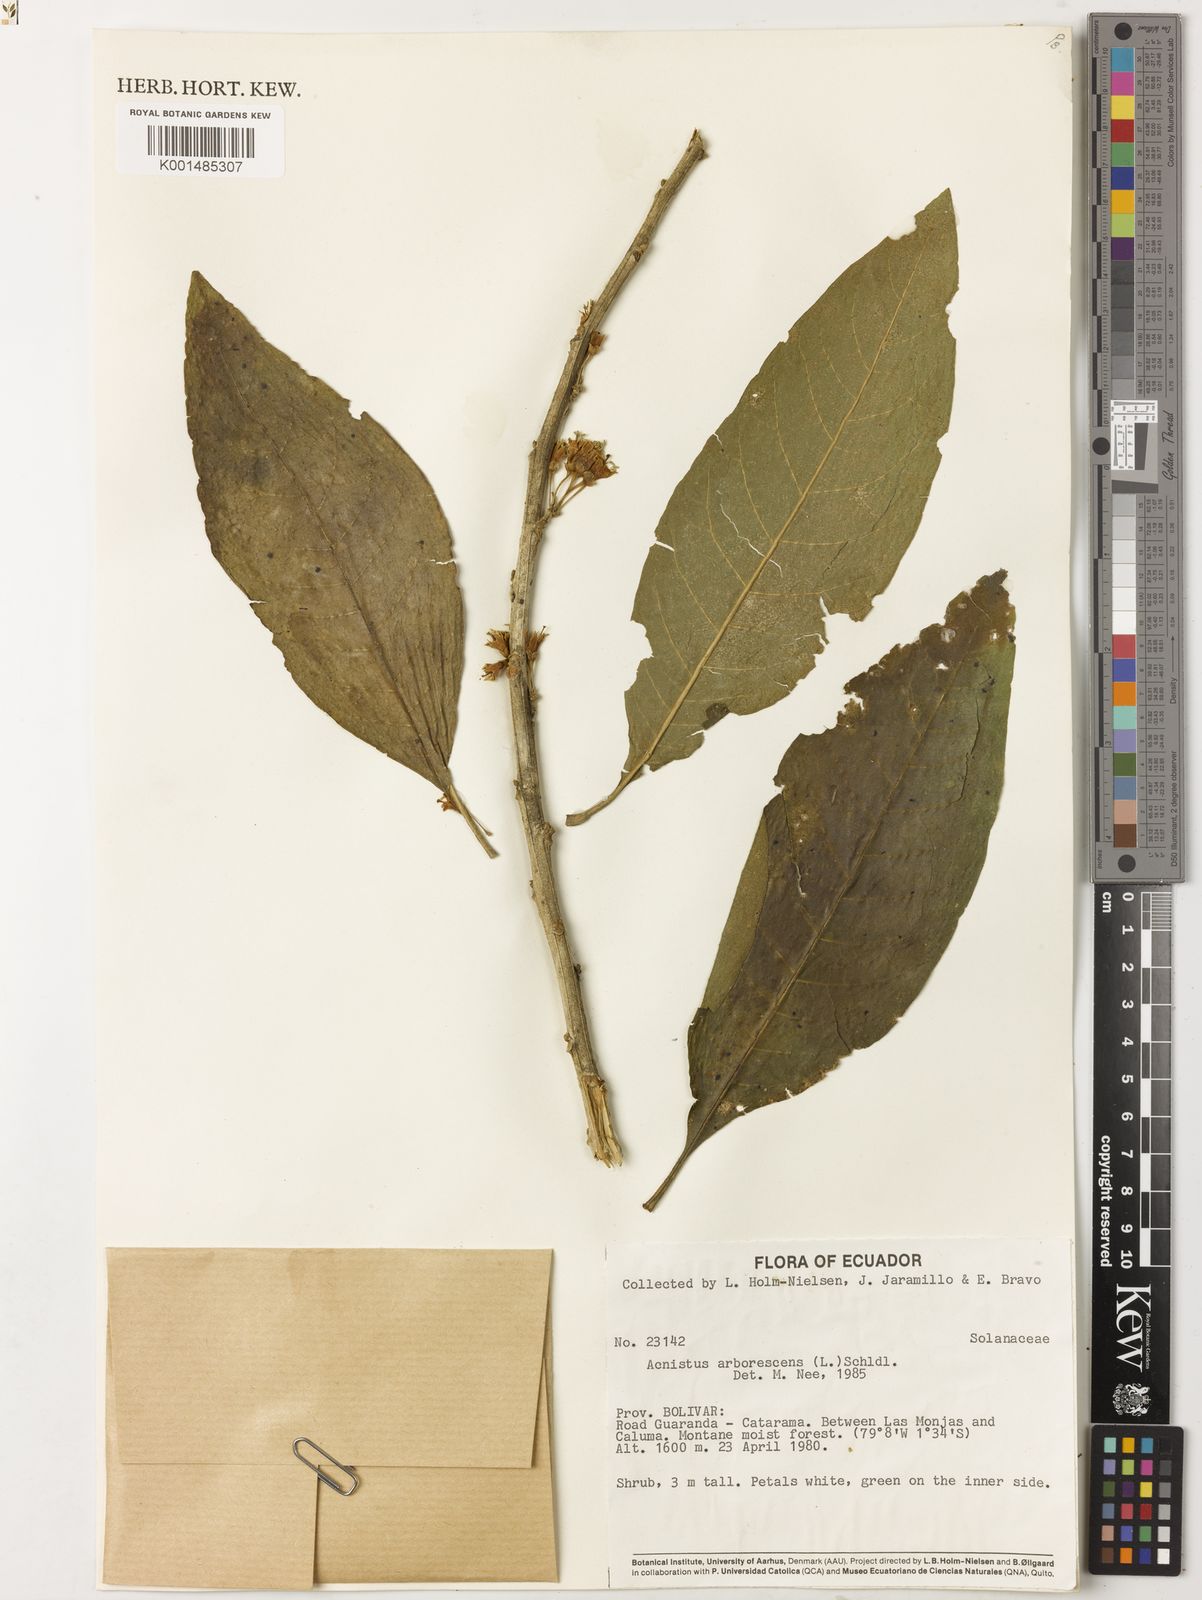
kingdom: Plantae
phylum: Tracheophyta
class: Magnoliopsida
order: Solanales
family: Solanaceae
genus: Iochroma
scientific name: Iochroma arborescens
